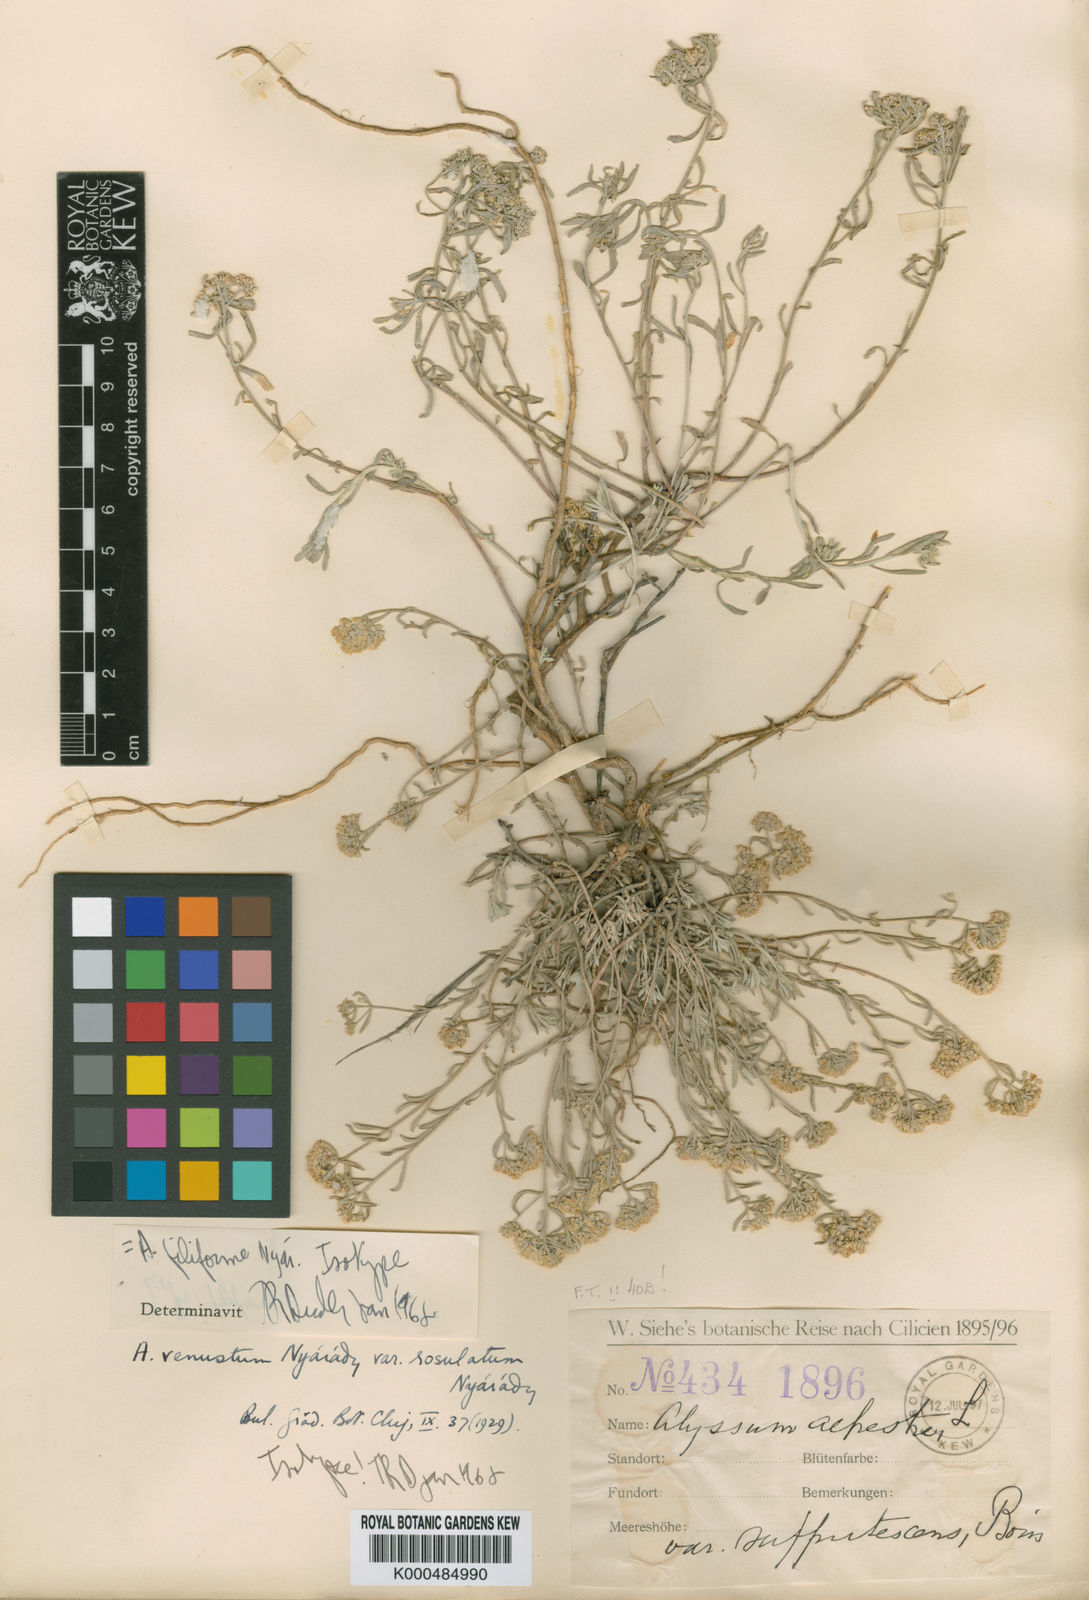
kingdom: Plantae
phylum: Tracheophyta
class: Magnoliopsida
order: Brassicales
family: Brassicaceae
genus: Odontarrhena
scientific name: Odontarrhena filiformis
